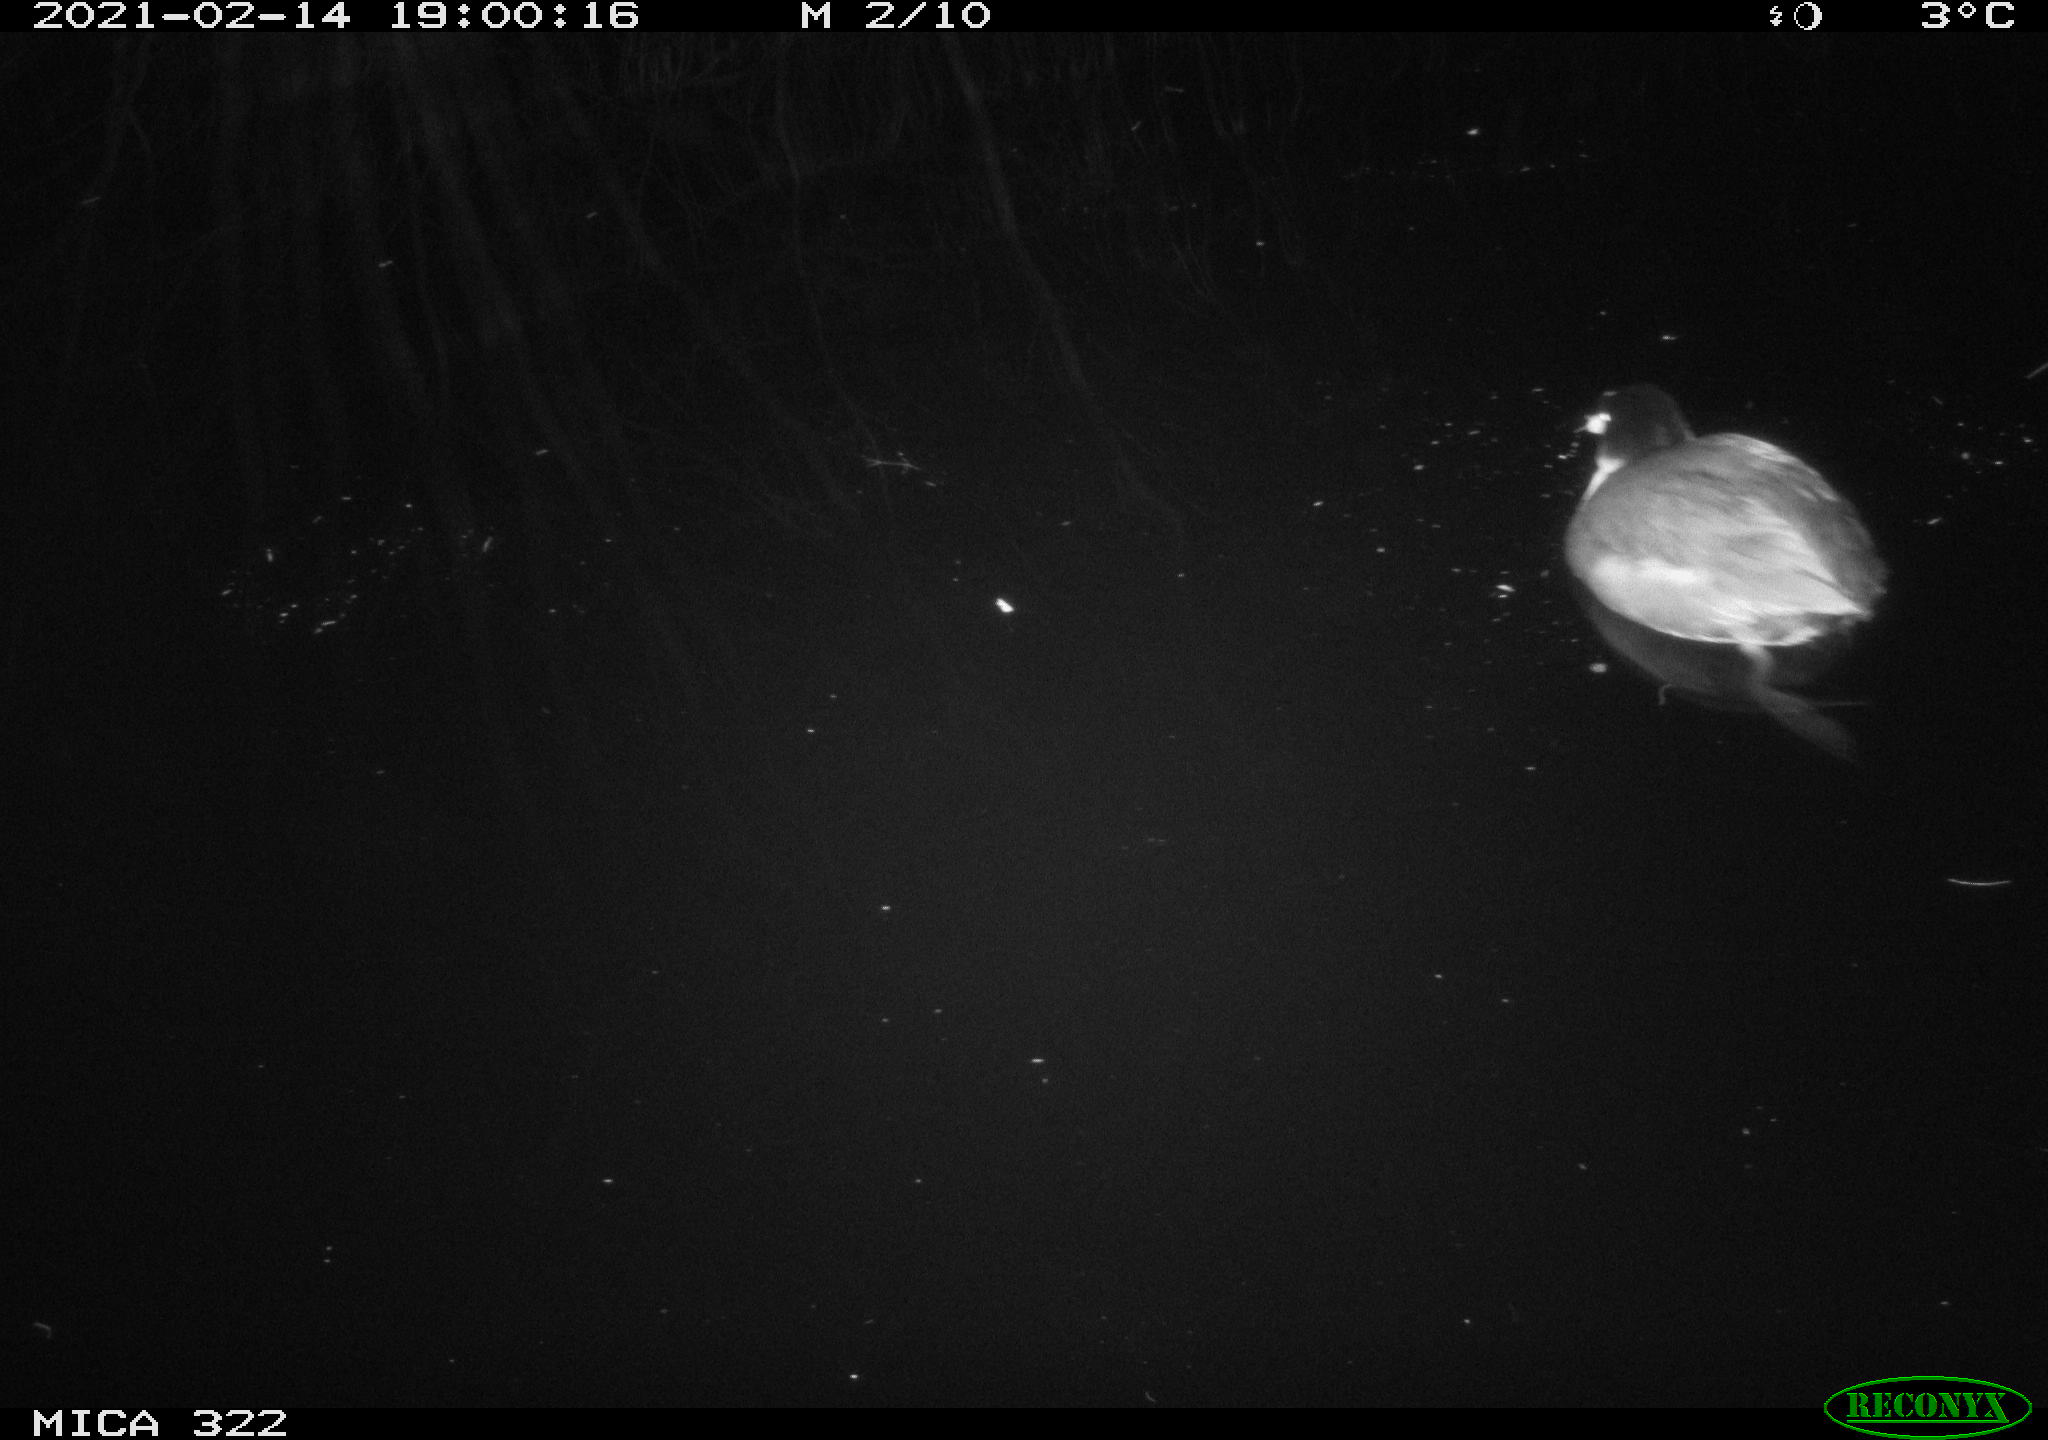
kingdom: Animalia
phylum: Chordata
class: Aves
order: Gruiformes
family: Rallidae
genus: Fulica
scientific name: Fulica atra
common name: Eurasian coot
